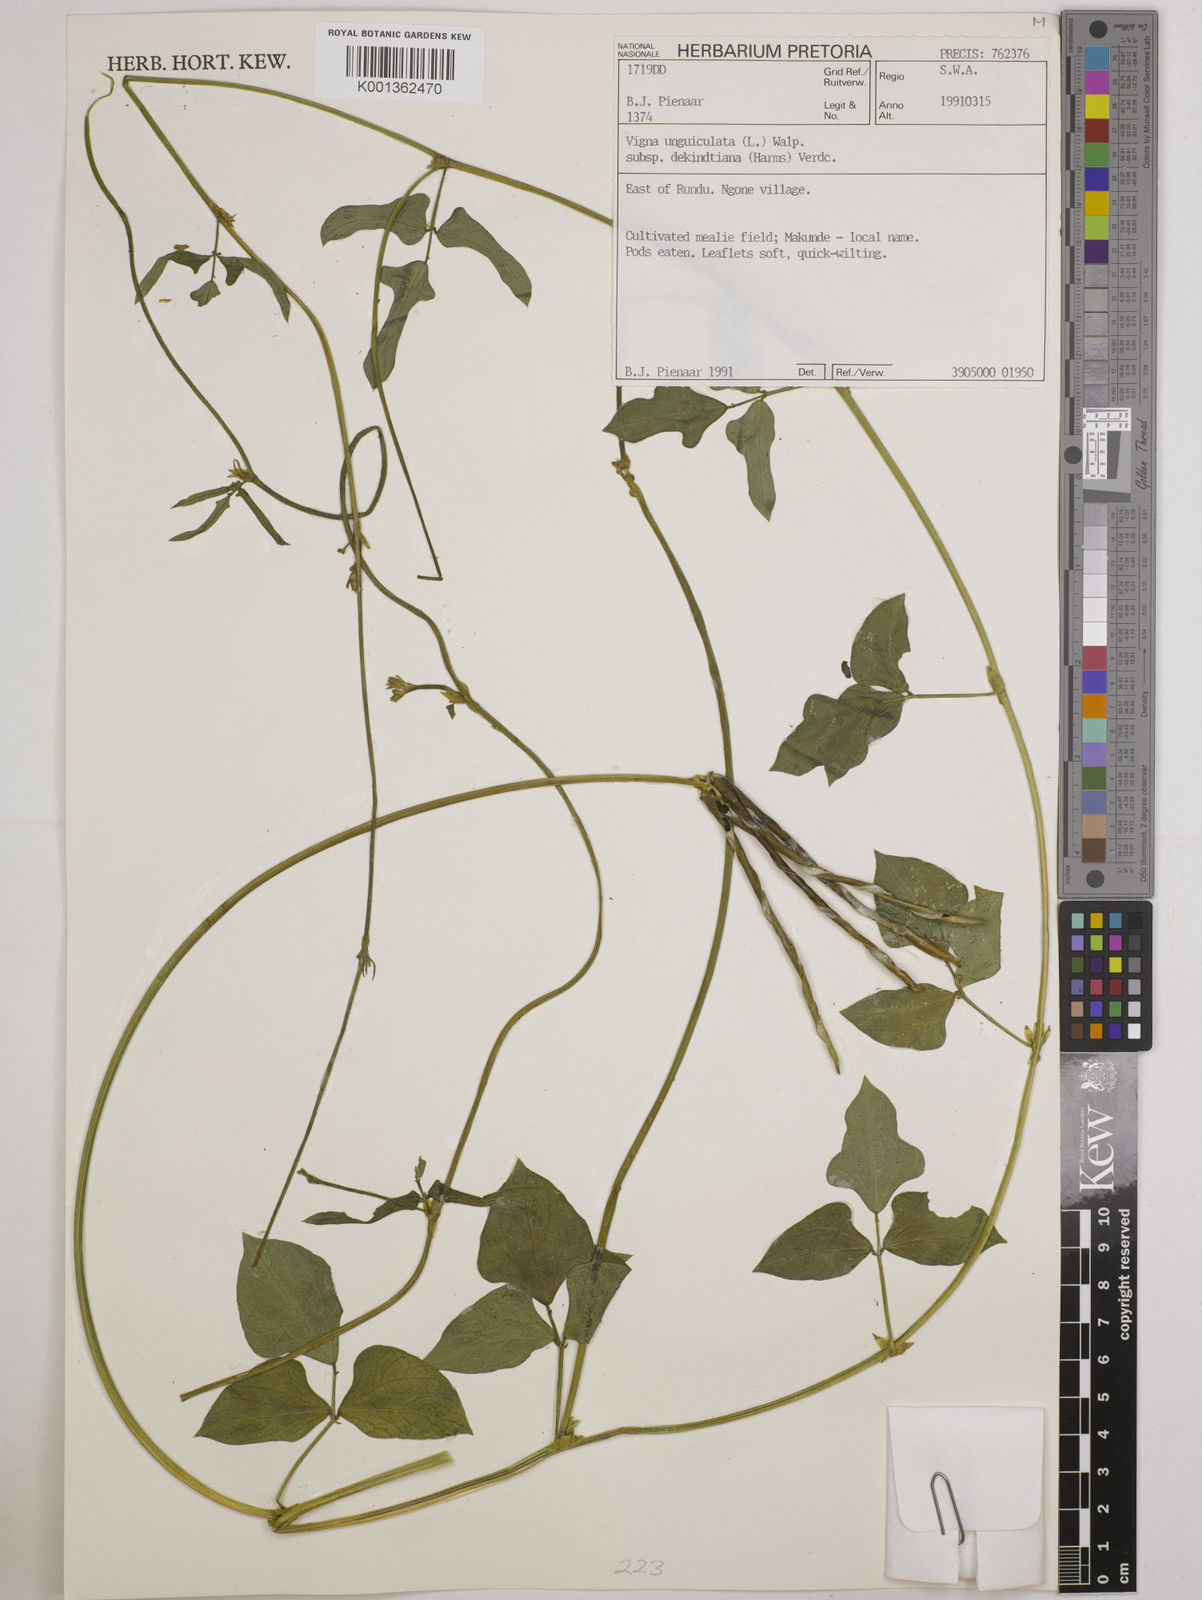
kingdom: Plantae
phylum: Tracheophyta
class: Magnoliopsida
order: Fabales
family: Fabaceae
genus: Vigna
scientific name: Vigna
